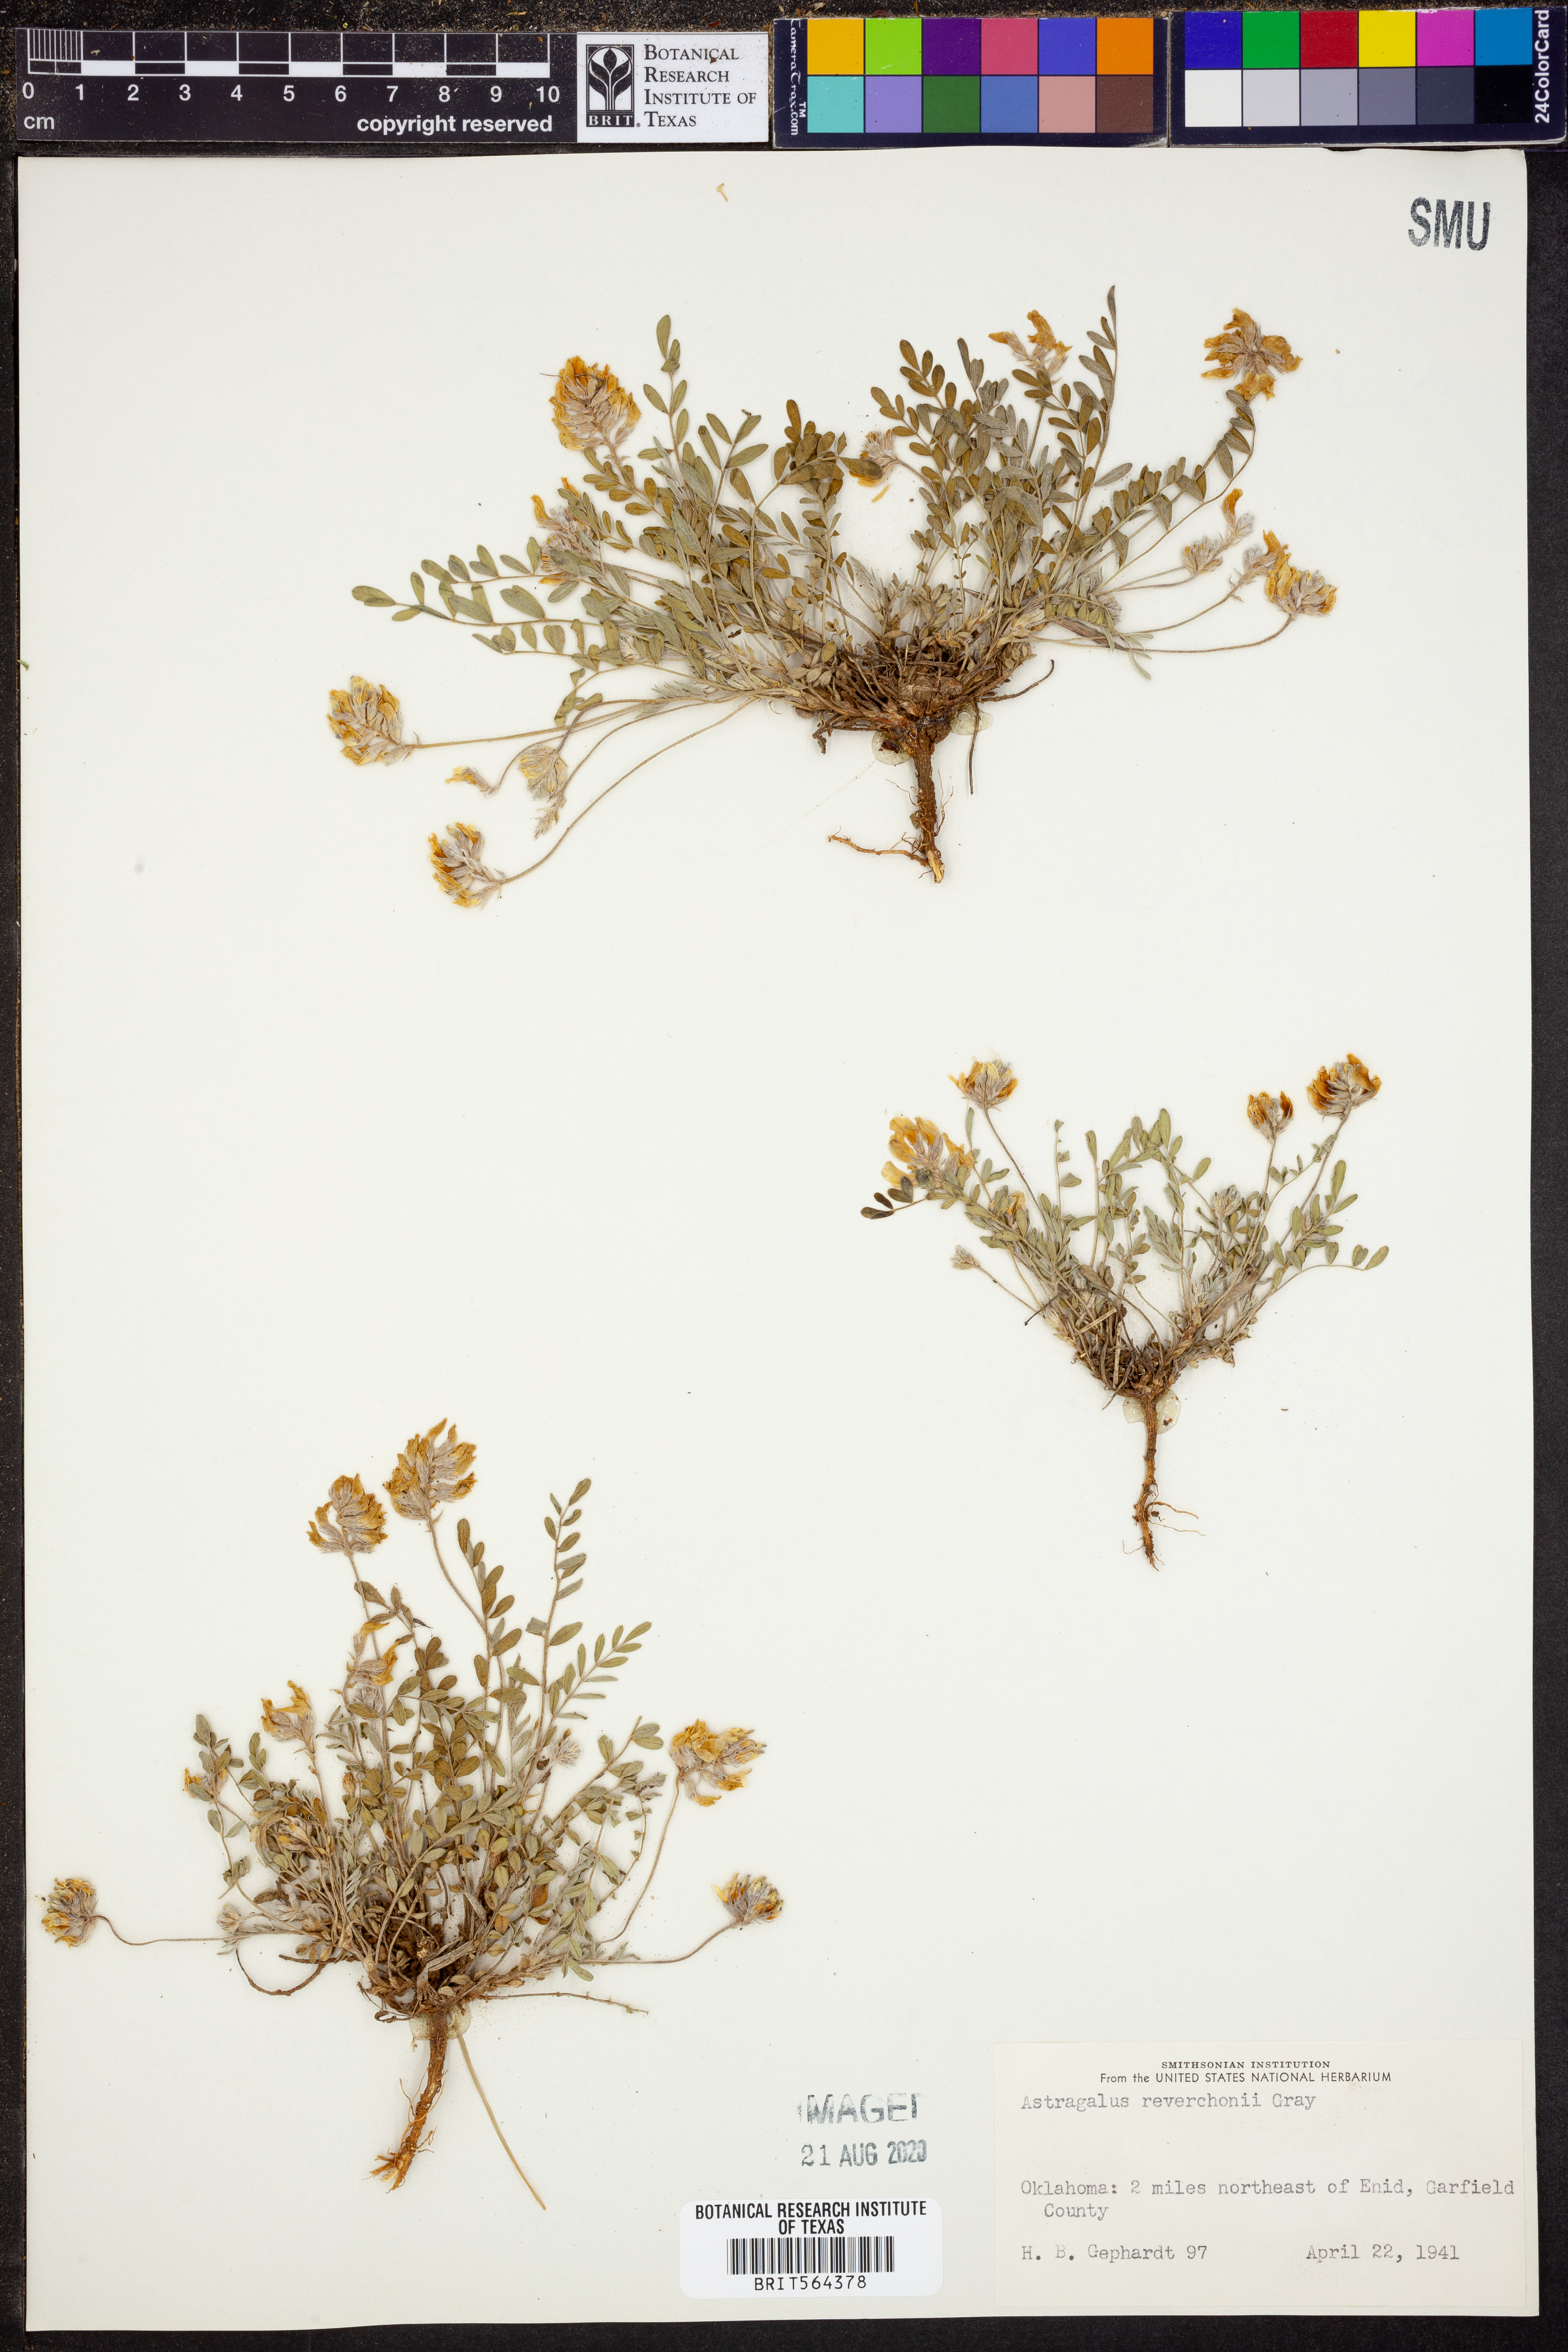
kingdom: Plantae
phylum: Tracheophyta
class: Magnoliopsida
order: Fabales
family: Fabaceae
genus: Astragalus
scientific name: Astragalus lotiflorus
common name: Lotus milk-vetch
